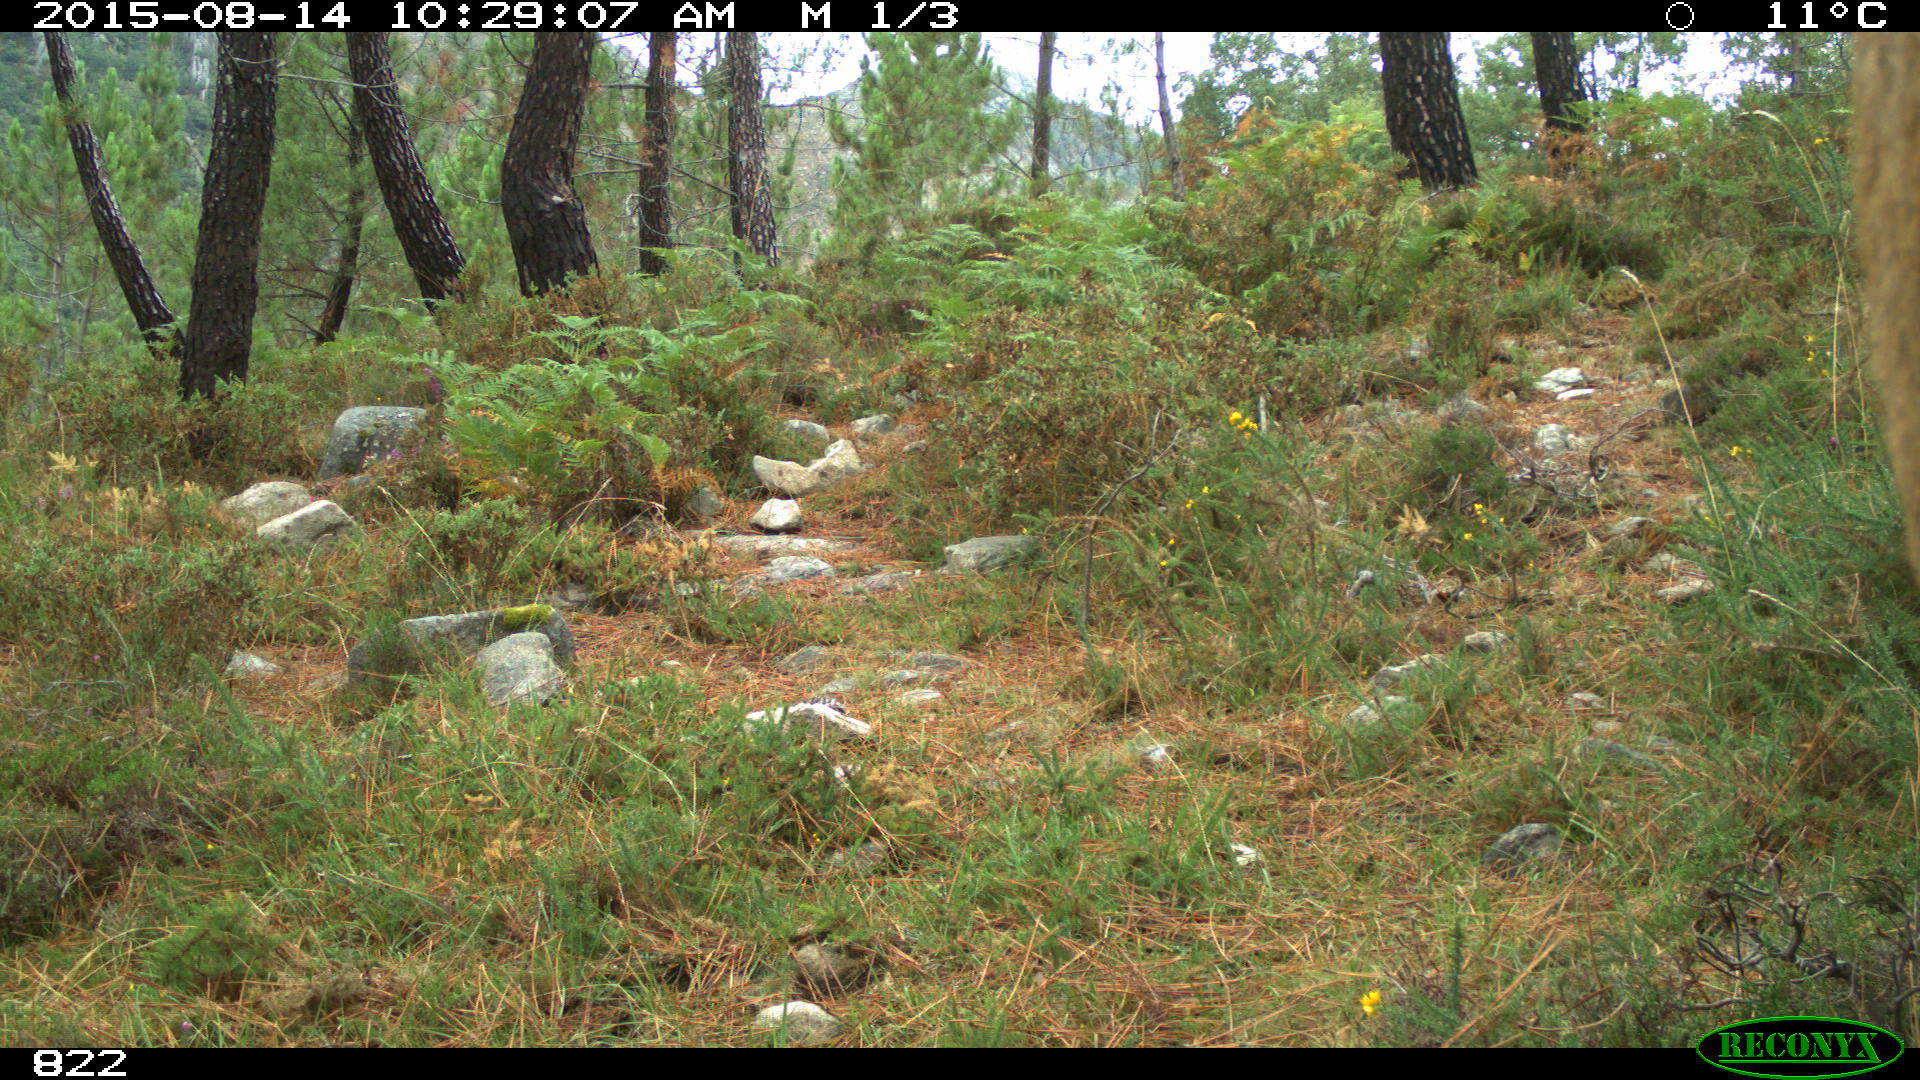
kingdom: Animalia
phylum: Chordata
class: Mammalia
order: Artiodactyla
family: Bovidae
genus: Bos
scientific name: Bos taurus
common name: Domesticated cattle
